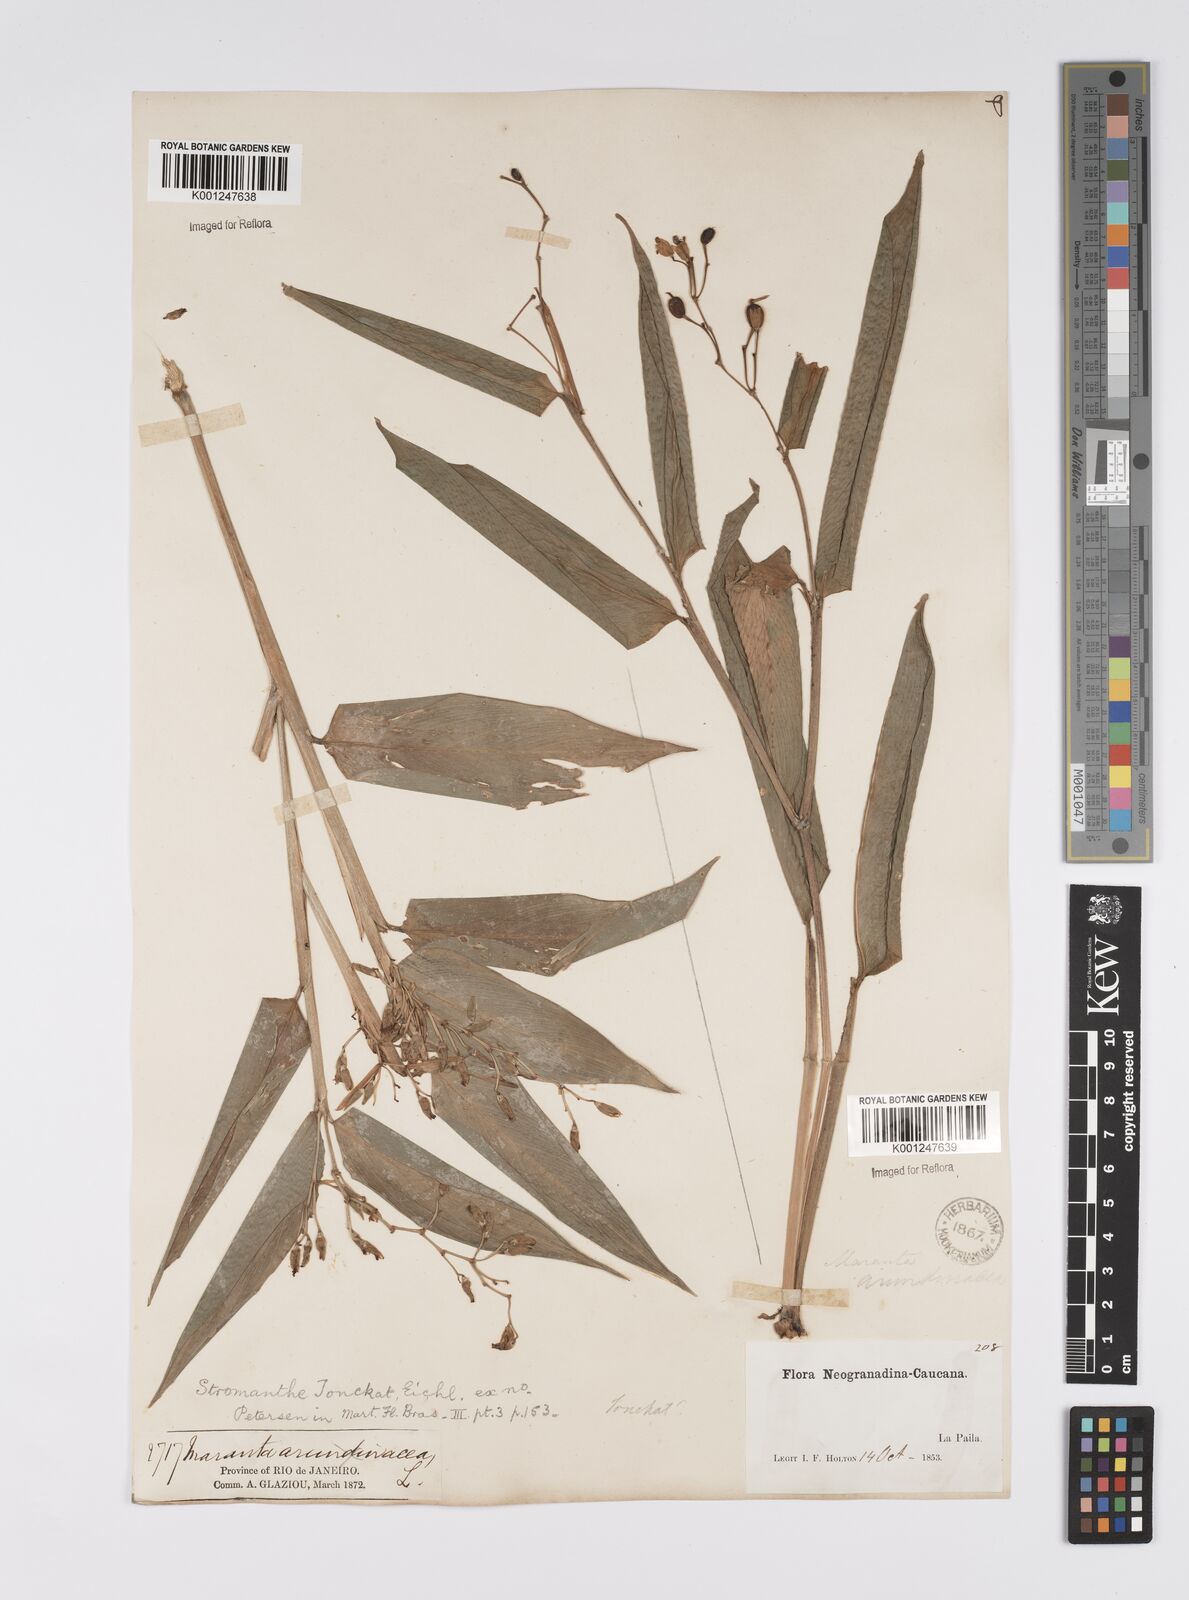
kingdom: Plantae
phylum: Tracheophyta
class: Liliopsida
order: Zingiberales
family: Marantaceae
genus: Stromanthe
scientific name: Stromanthe tonckat
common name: Stromanthe
